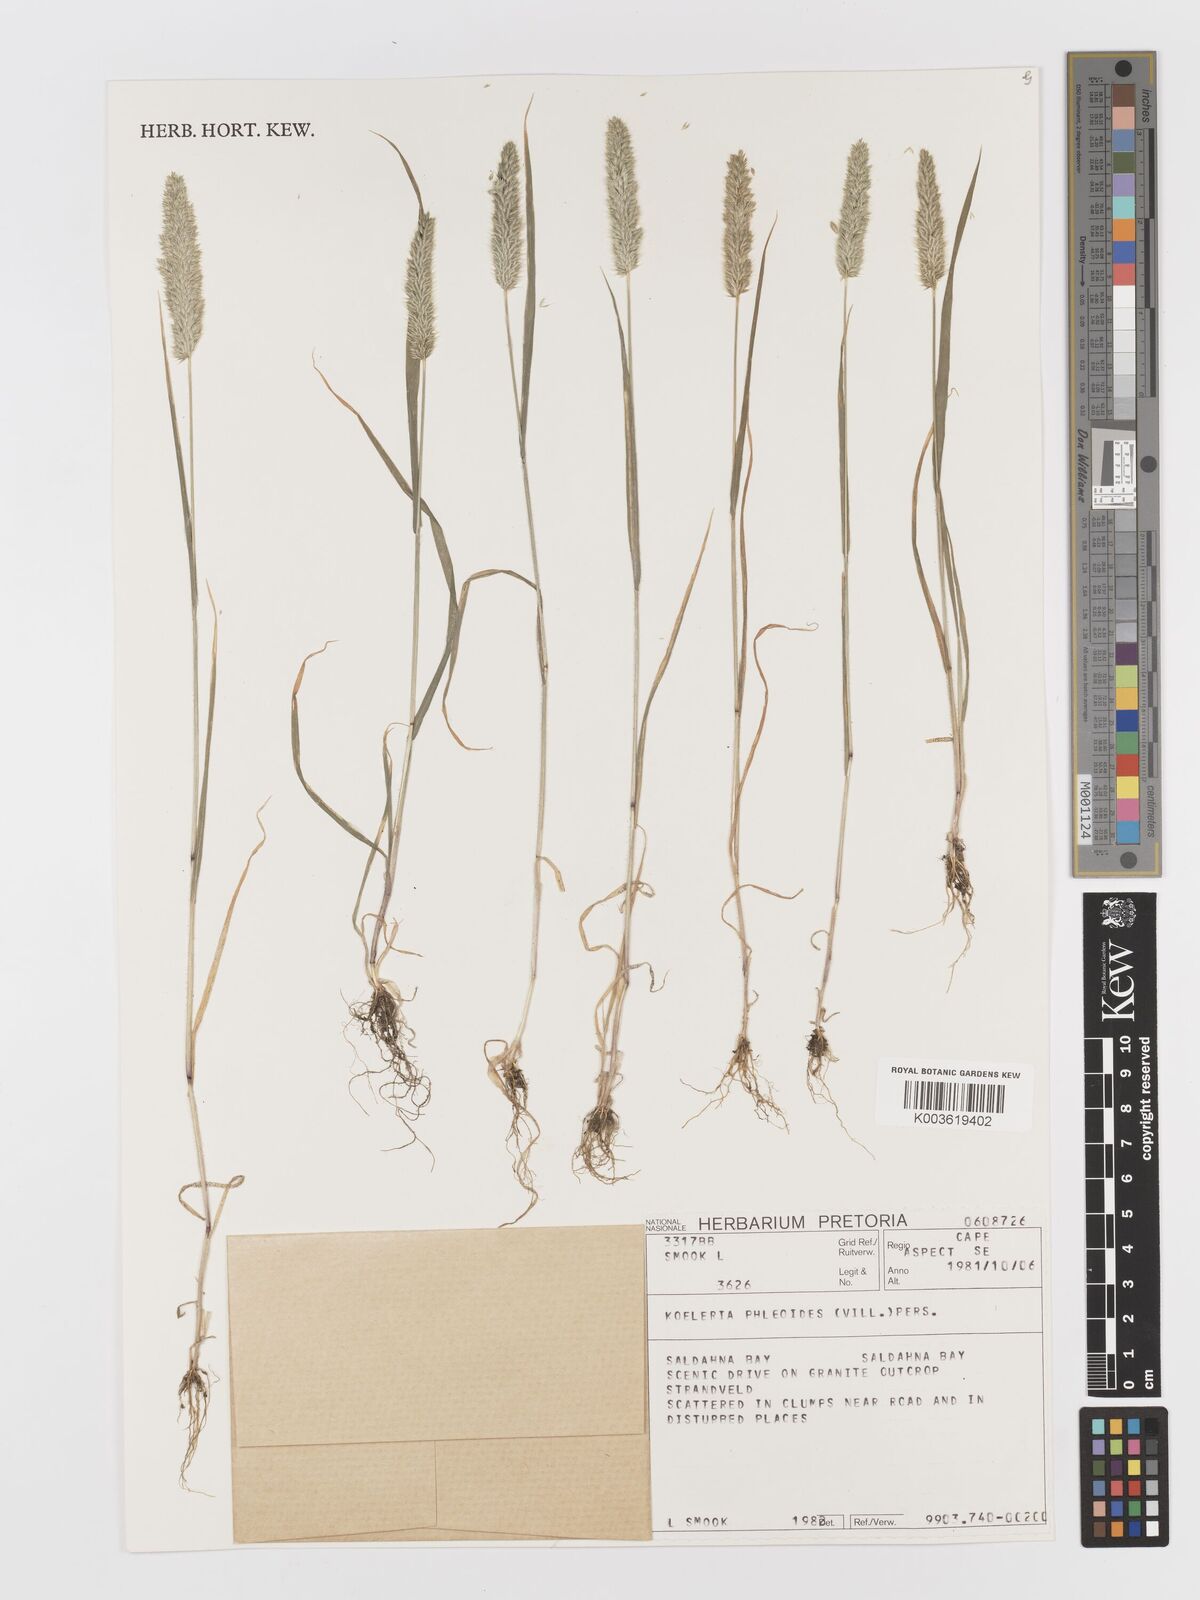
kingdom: Plantae
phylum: Tracheophyta
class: Liliopsida
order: Poales
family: Poaceae
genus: Rostraria
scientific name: Rostraria cristata
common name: Mediterranean hair-grass
